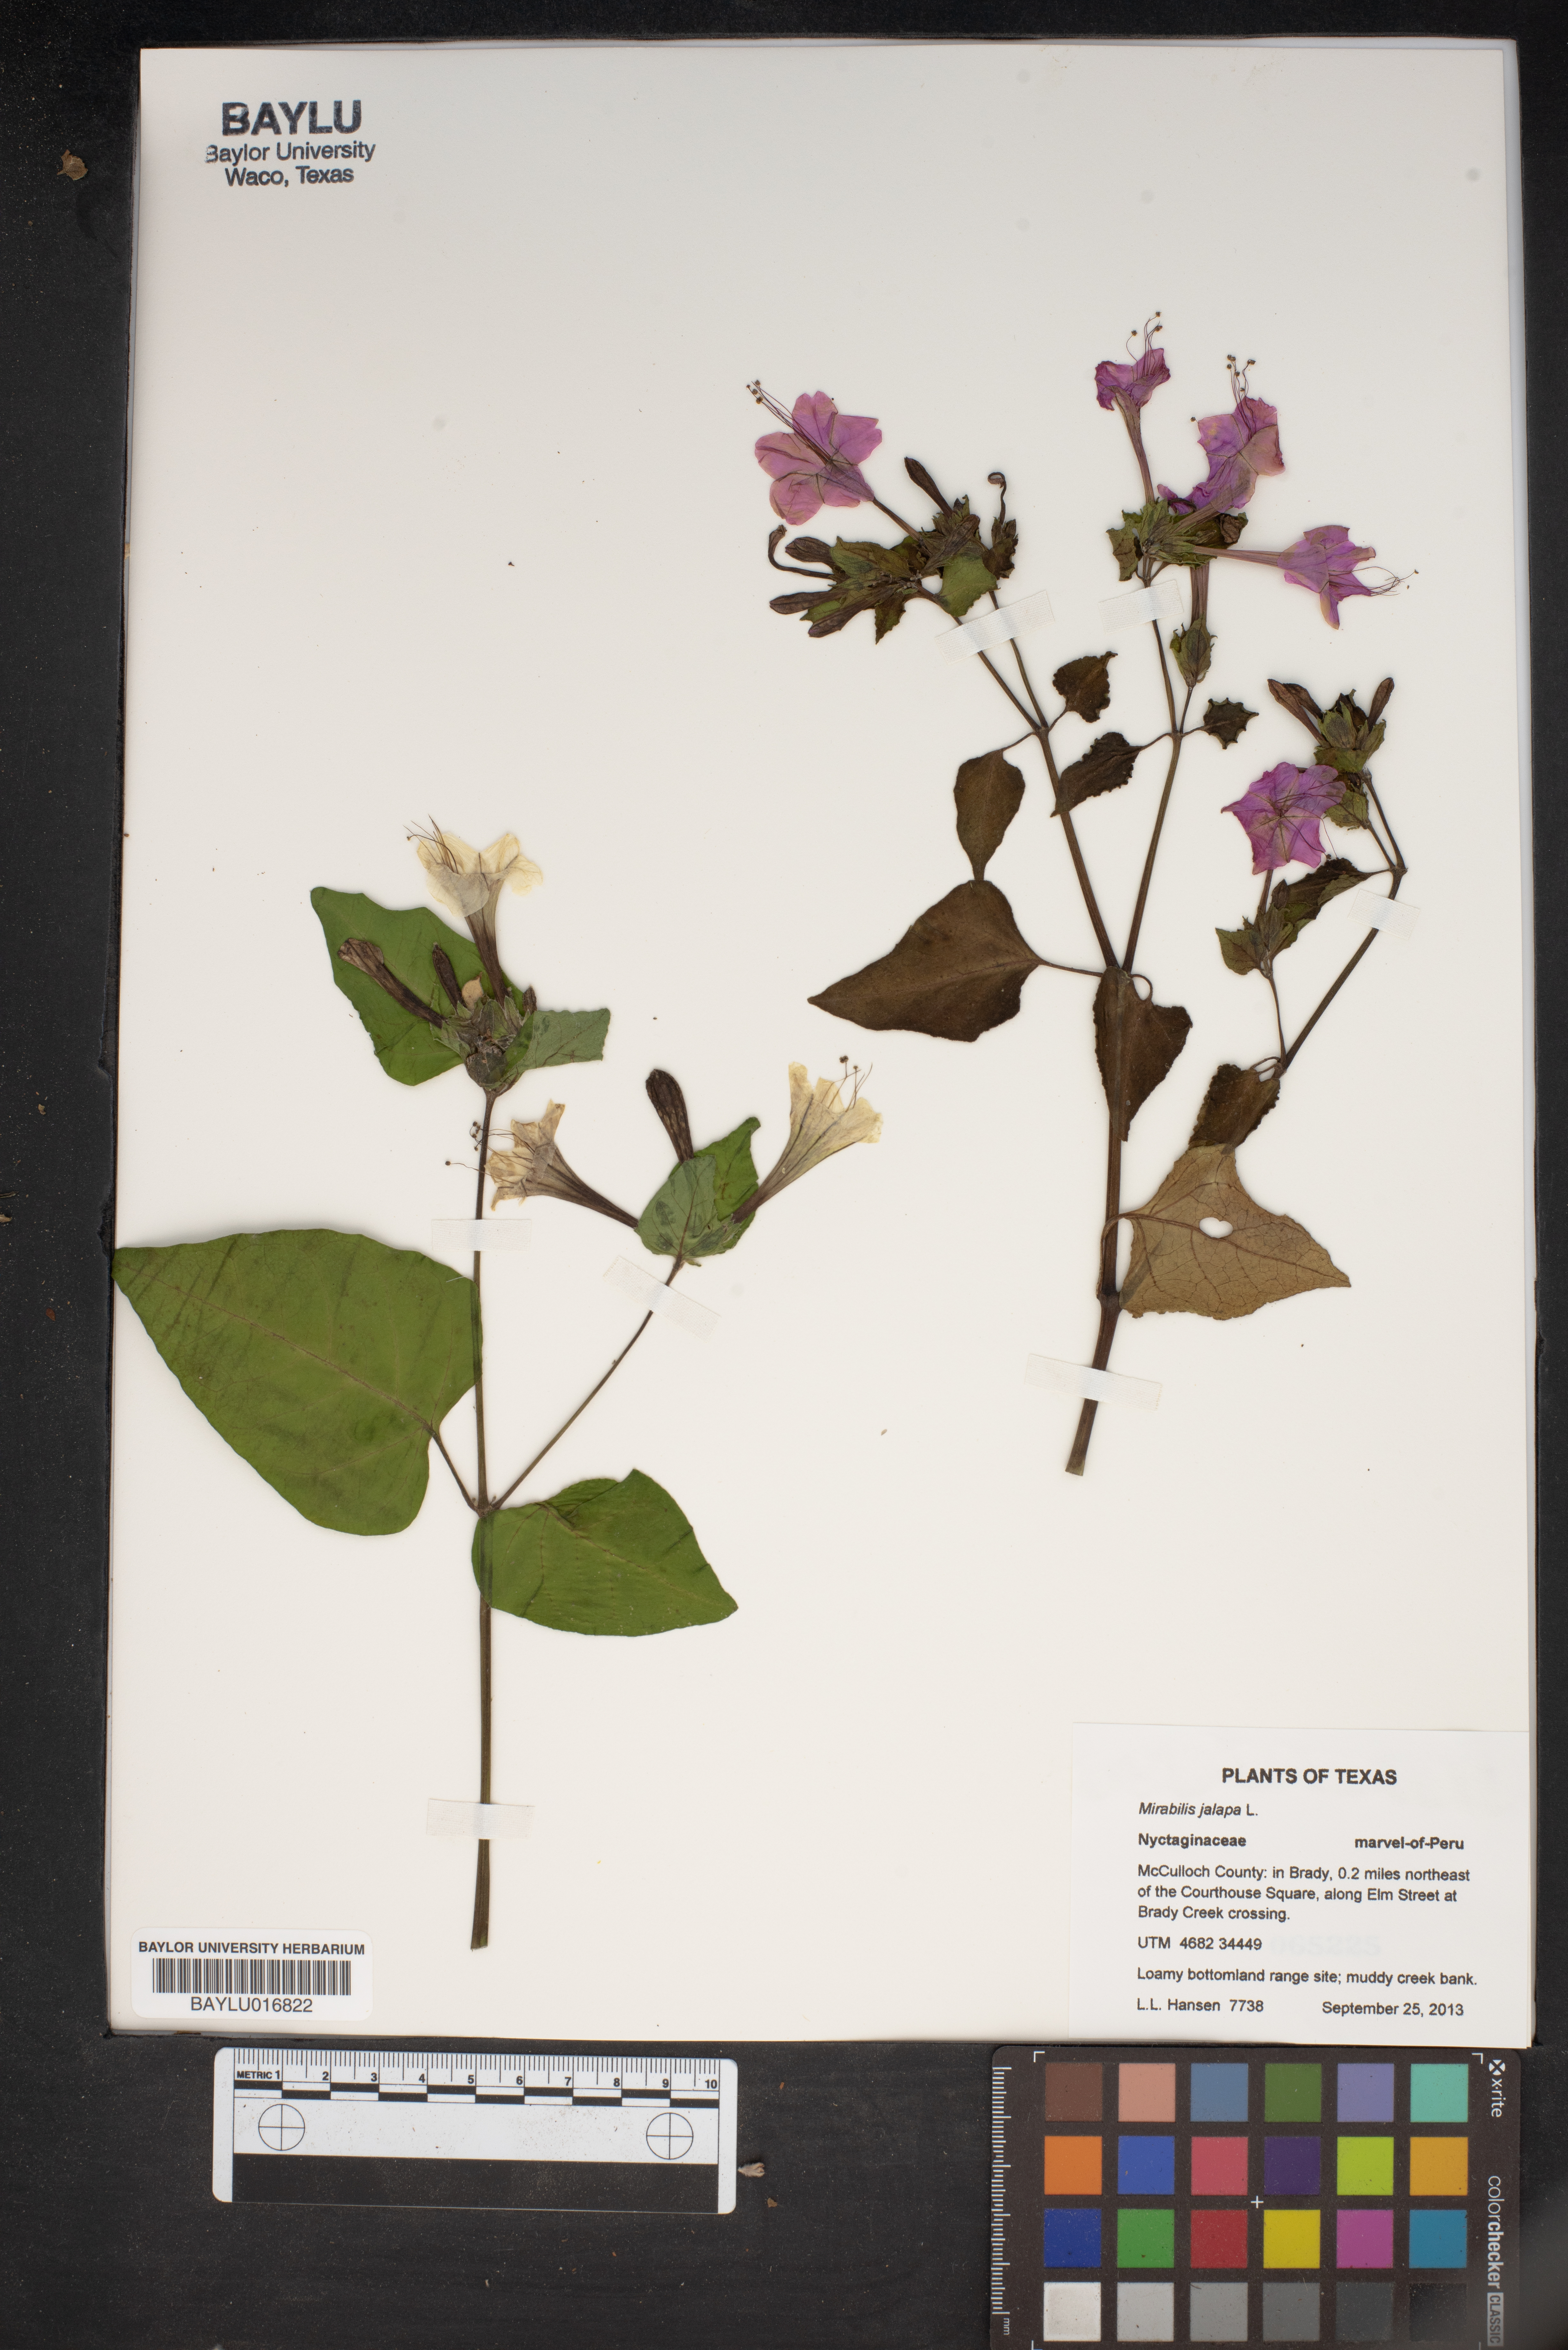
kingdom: Plantae
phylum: Tracheophyta
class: Magnoliopsida
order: Caryophyllales
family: Nyctaginaceae
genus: Mirabilis
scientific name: Mirabilis jalapa
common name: Marvel-of-peru
